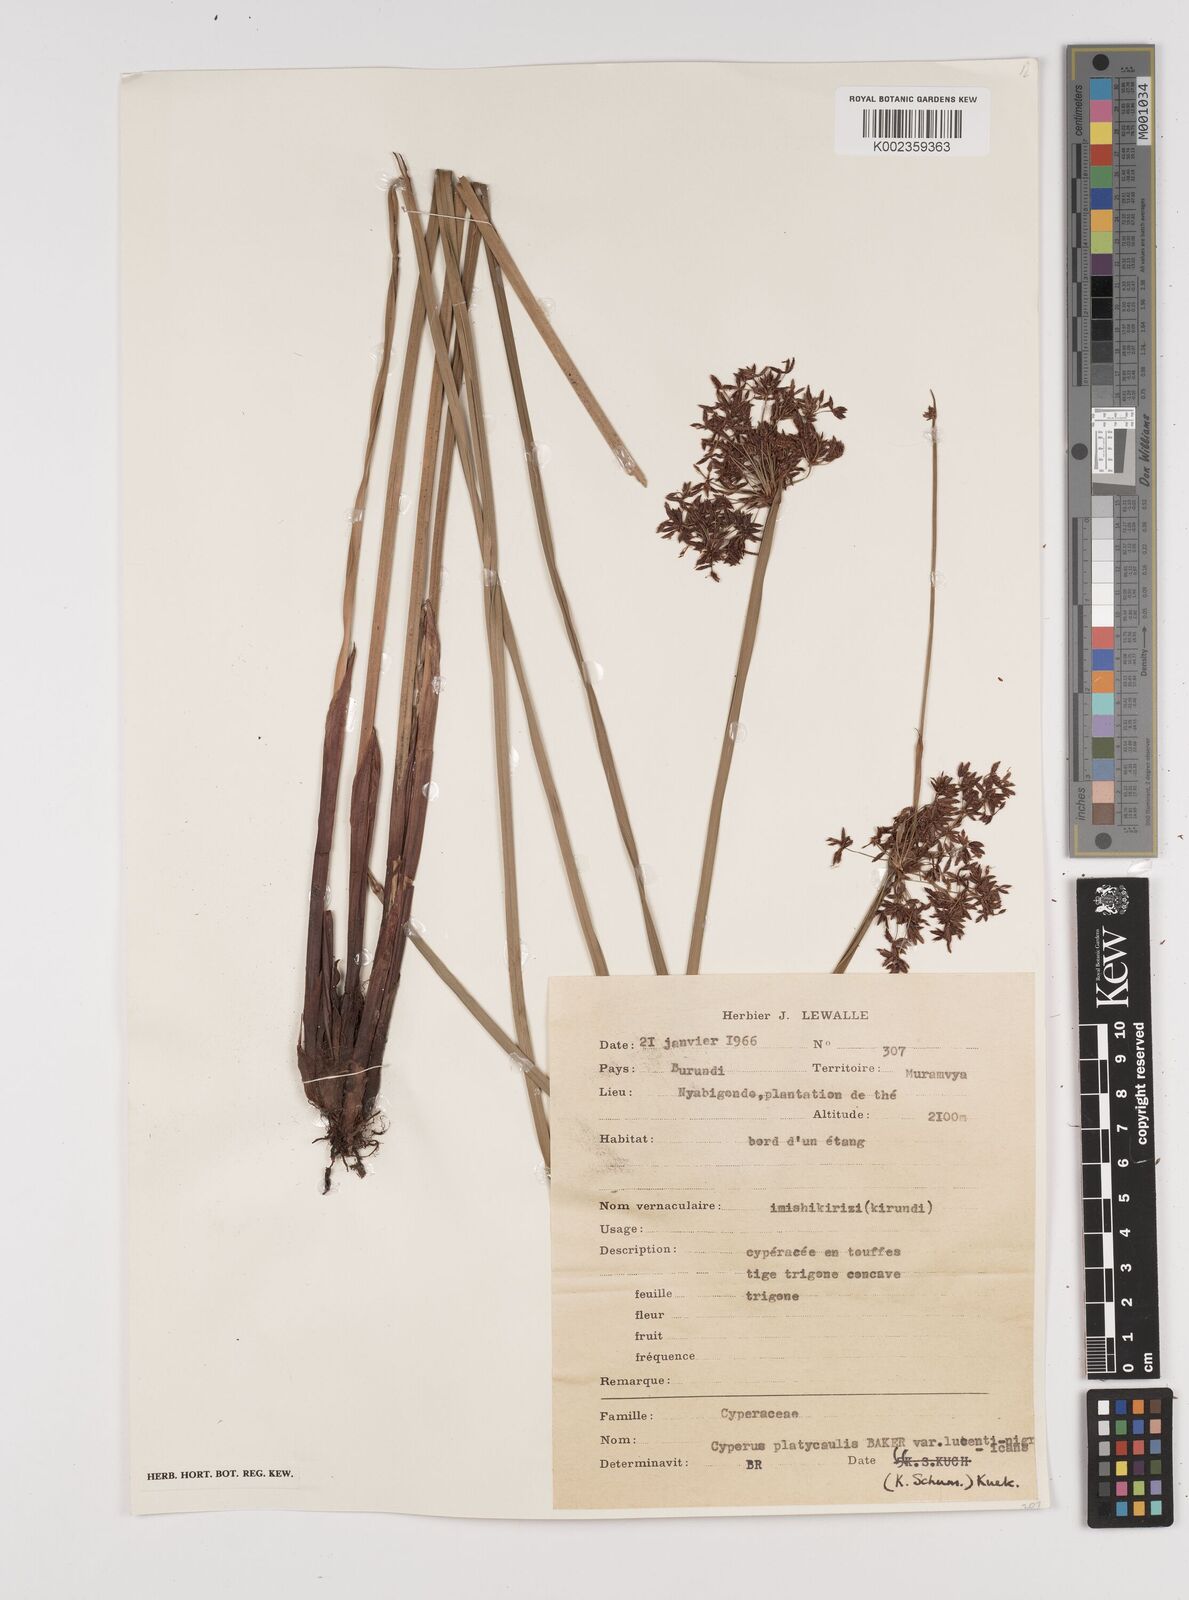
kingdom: Plantae
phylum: Tracheophyta
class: Liliopsida
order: Poales
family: Cyperaceae
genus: Cyperus
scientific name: Cyperus platycaulis
